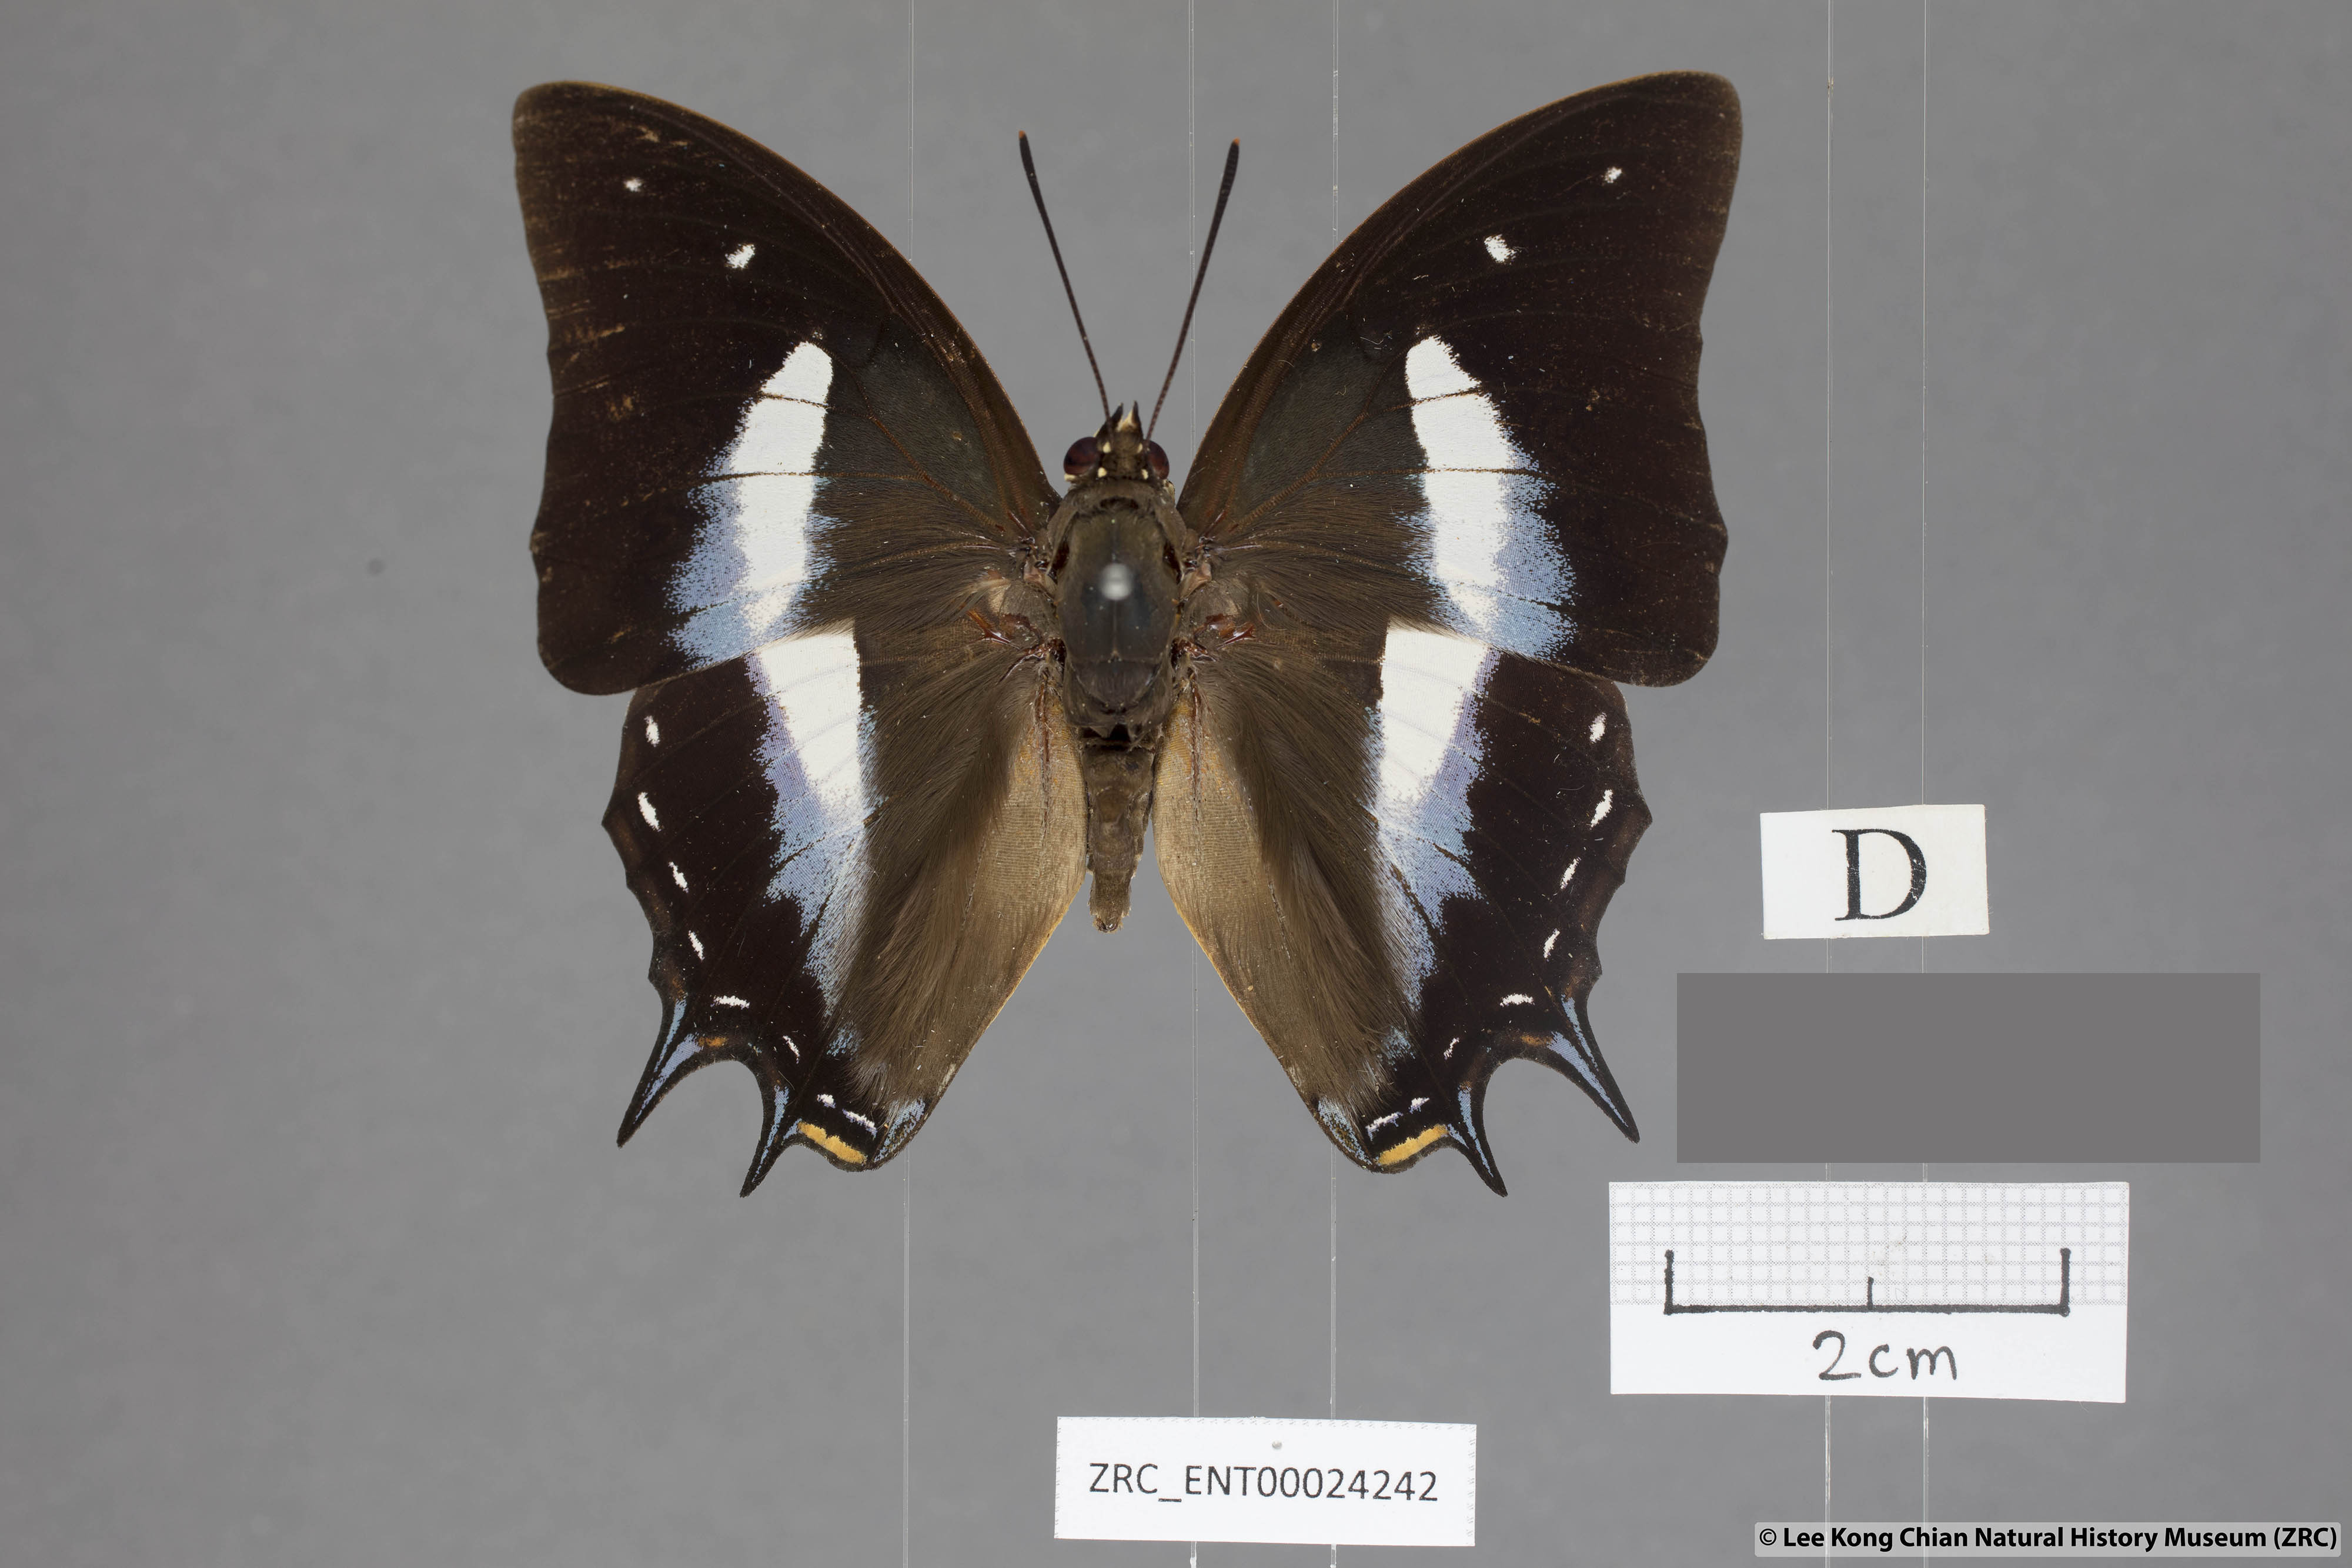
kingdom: Animalia
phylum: Arthropoda
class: Insecta
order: Lepidoptera
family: Nymphalidae
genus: Polyura
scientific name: Polyura schreiberi
